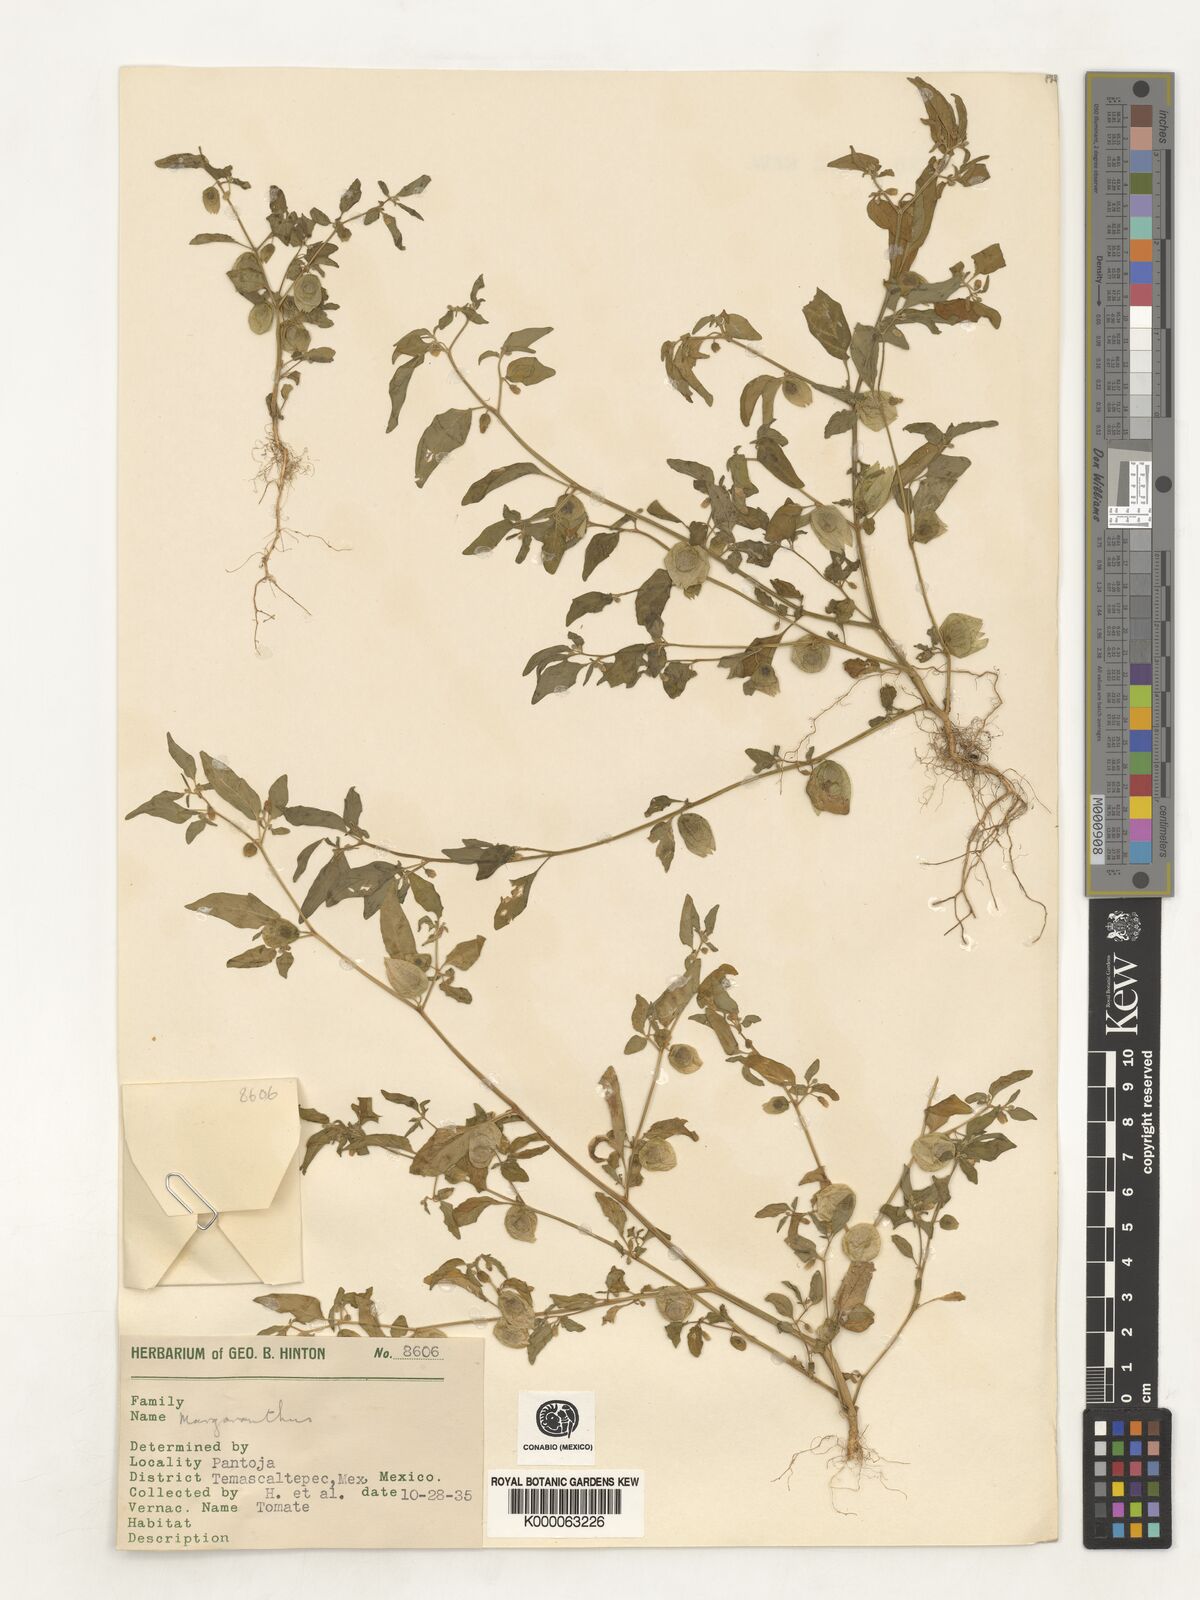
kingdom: Plantae
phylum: Tracheophyta
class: Magnoliopsida
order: Solanales
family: Solanaceae
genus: Physalis
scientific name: Physalis
